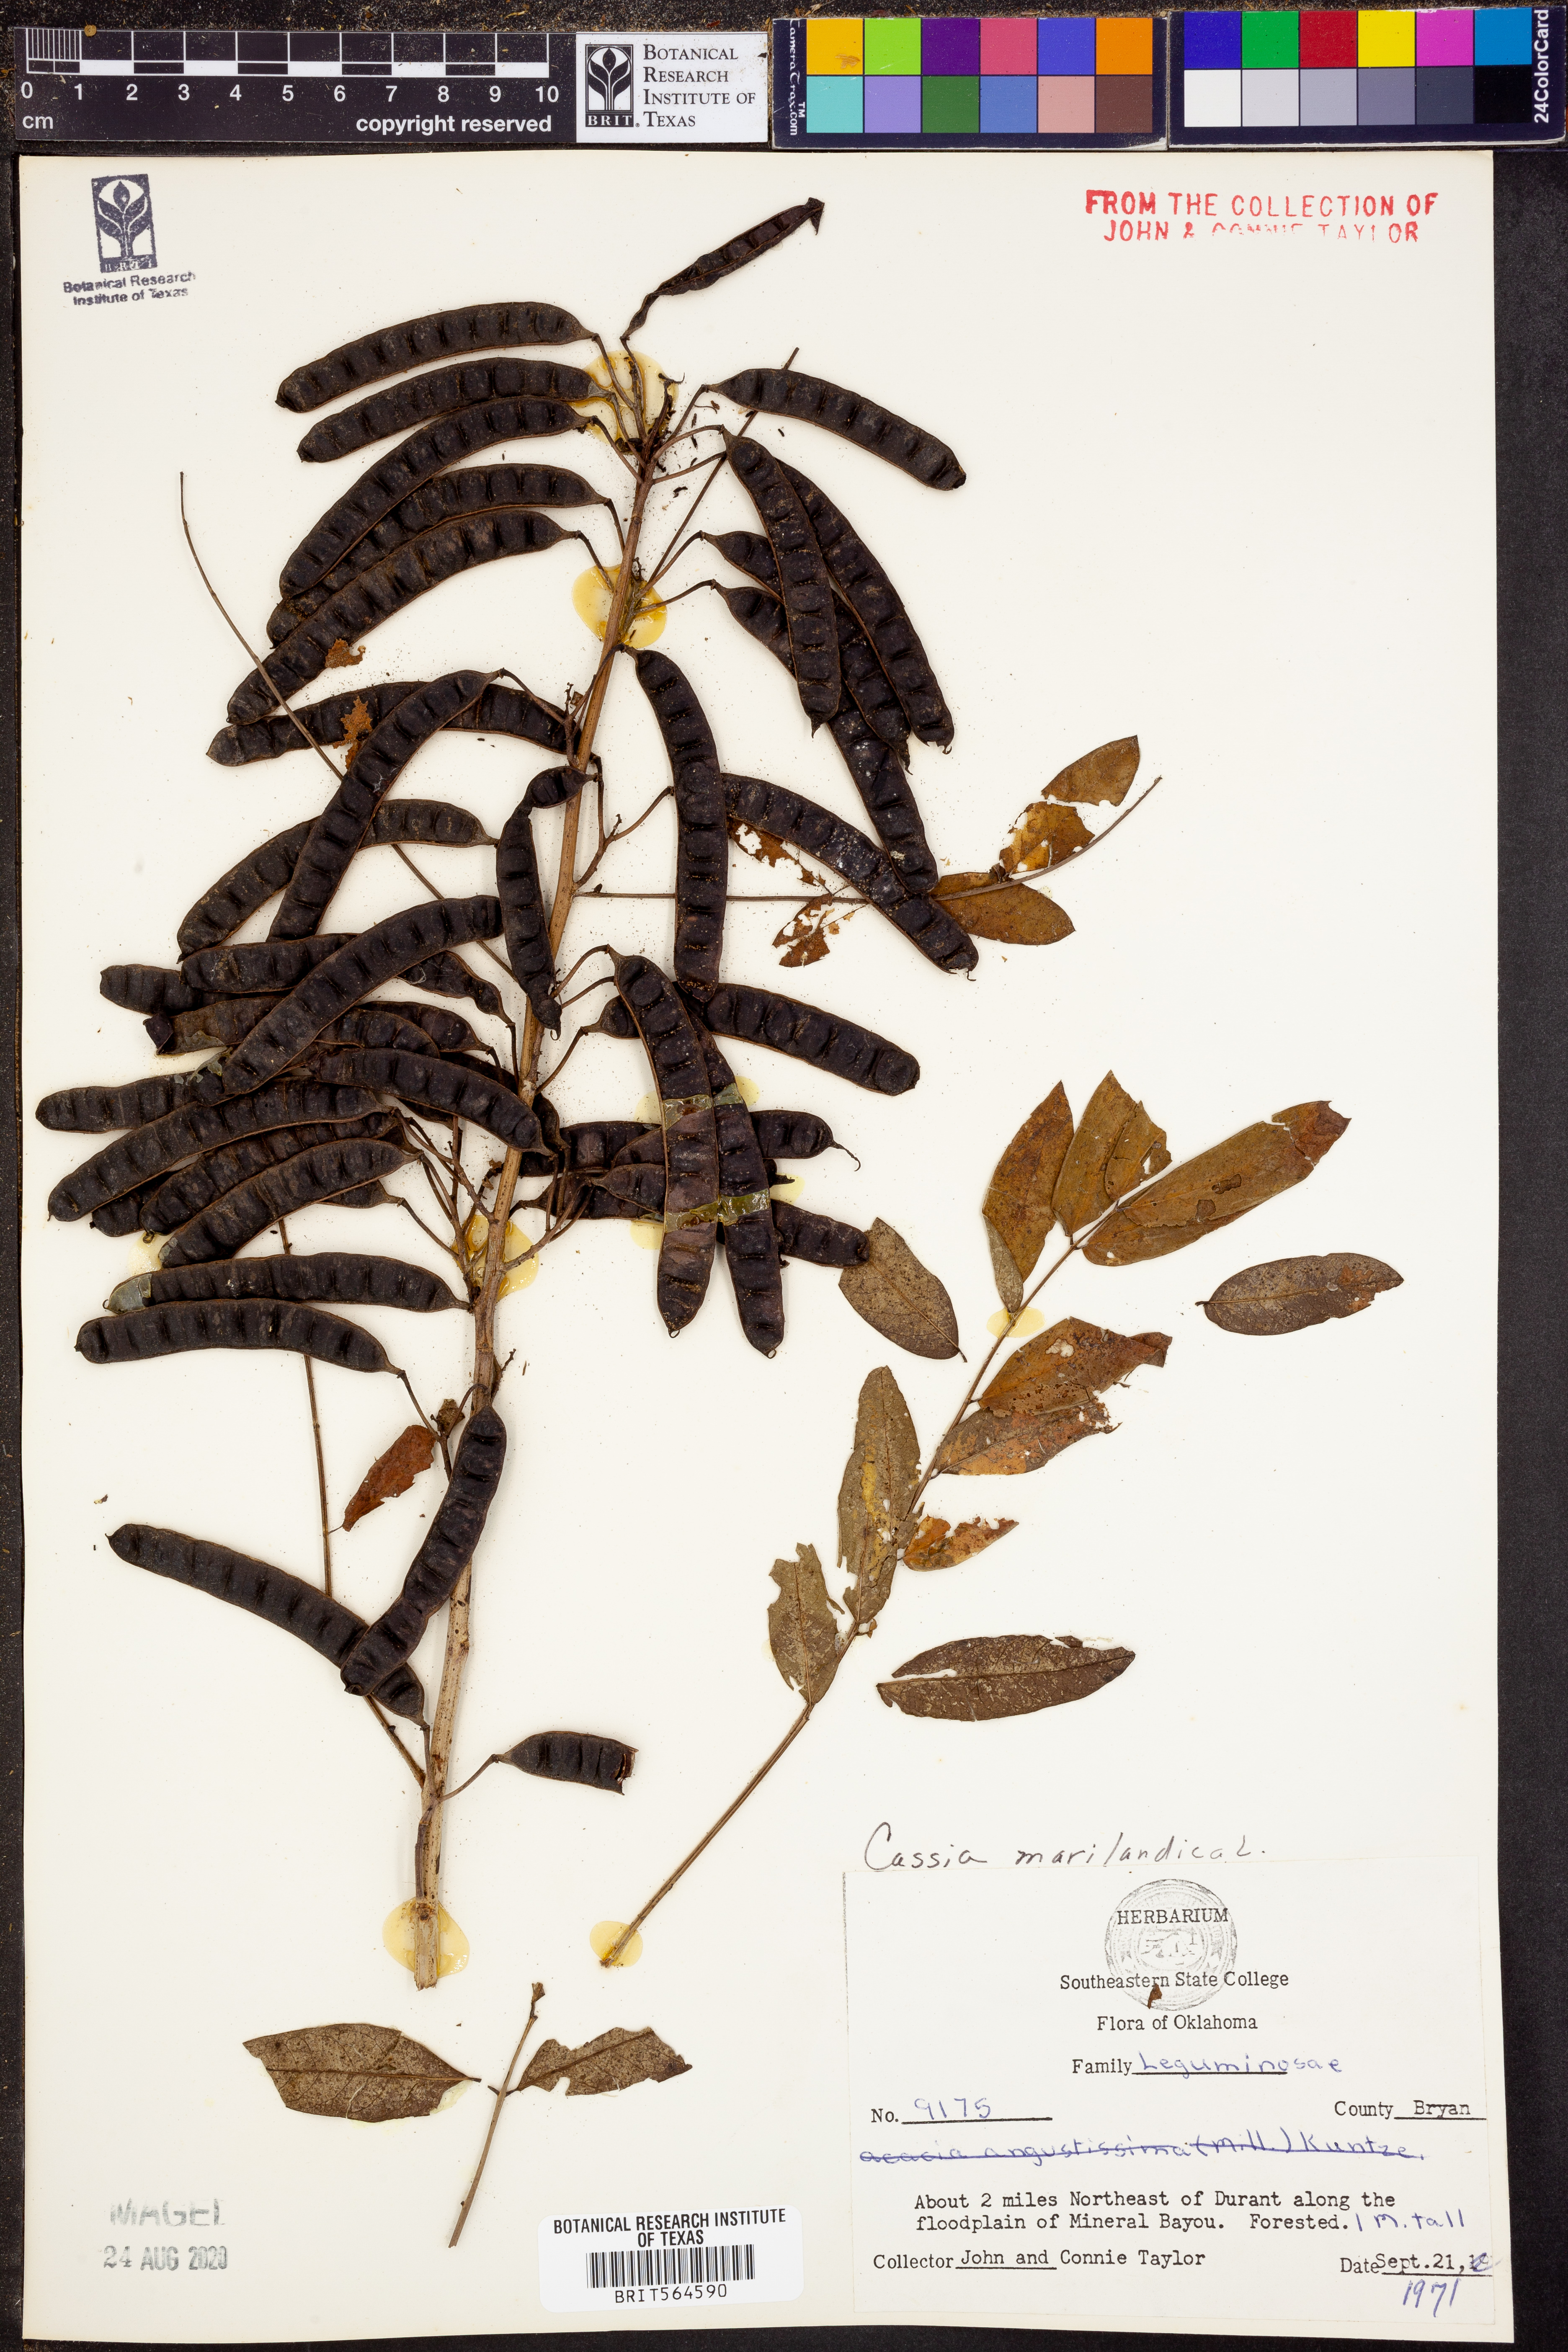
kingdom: Plantae
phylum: Tracheophyta
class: Magnoliopsida
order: Fabales
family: Fabaceae
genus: Senna
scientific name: Senna marilandica
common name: American senna
